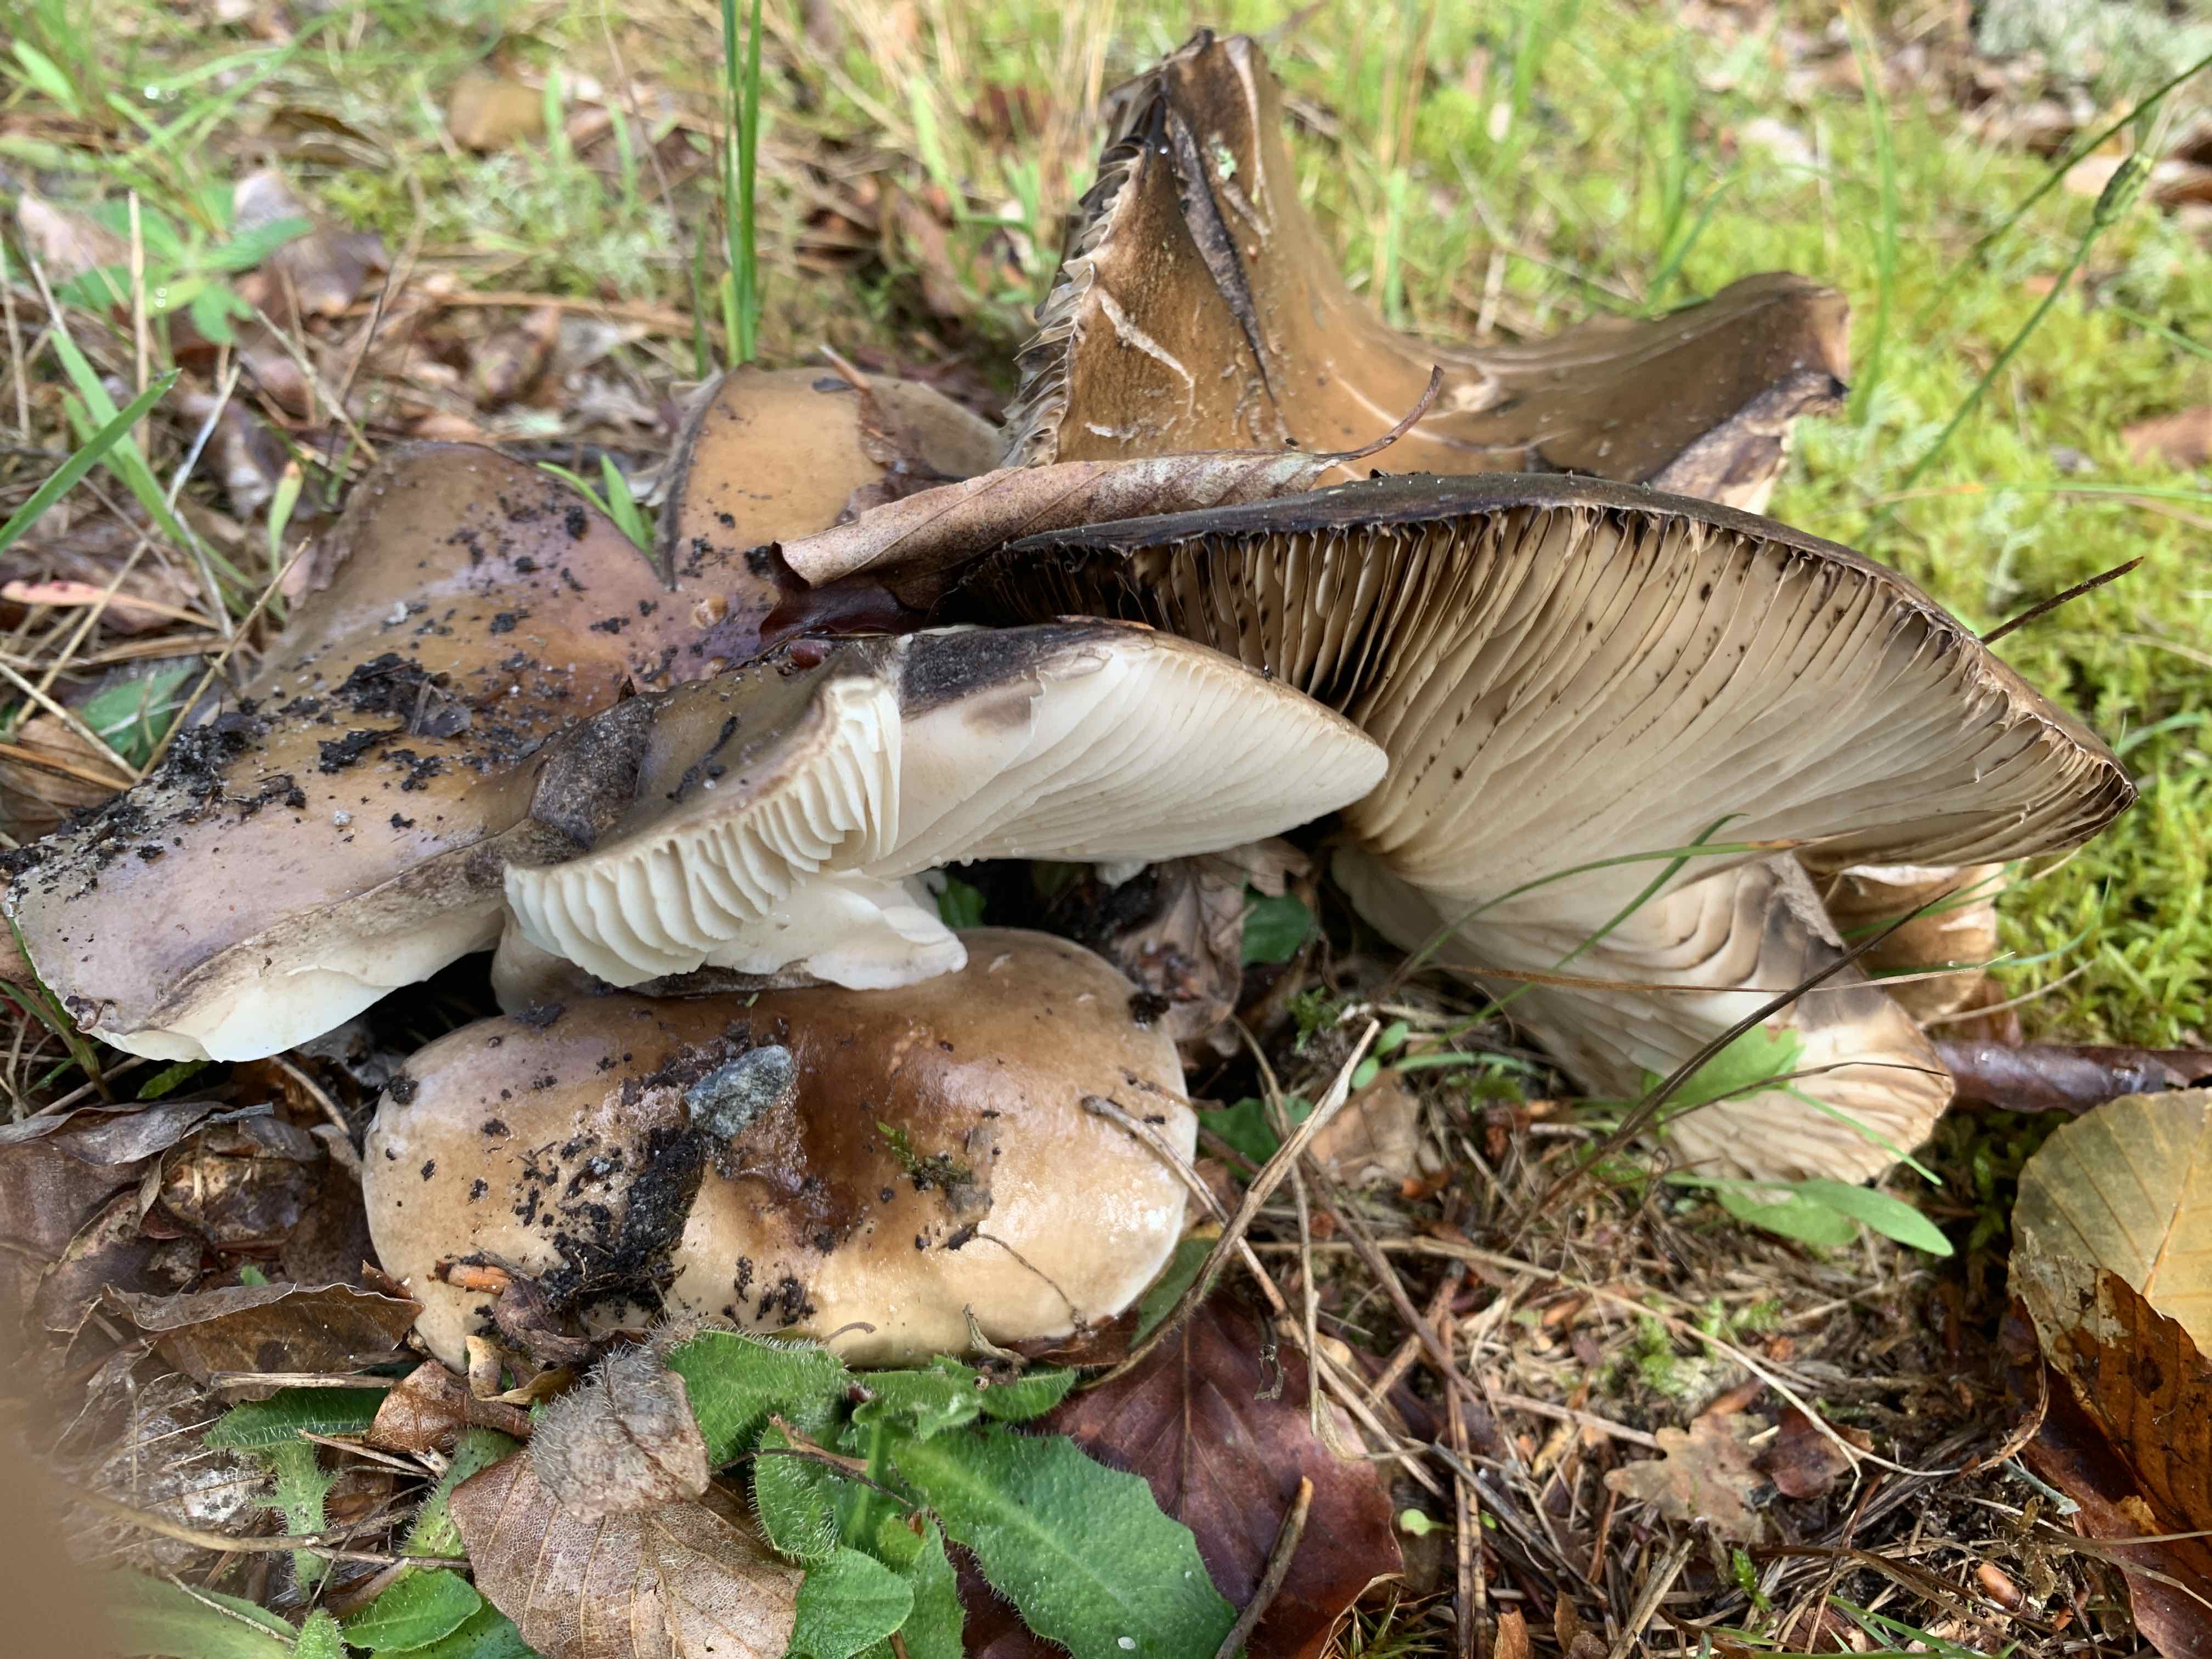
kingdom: Fungi
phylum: Basidiomycota
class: Agaricomycetes
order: Russulales
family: Russulaceae
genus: Russula
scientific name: Russula adusta
